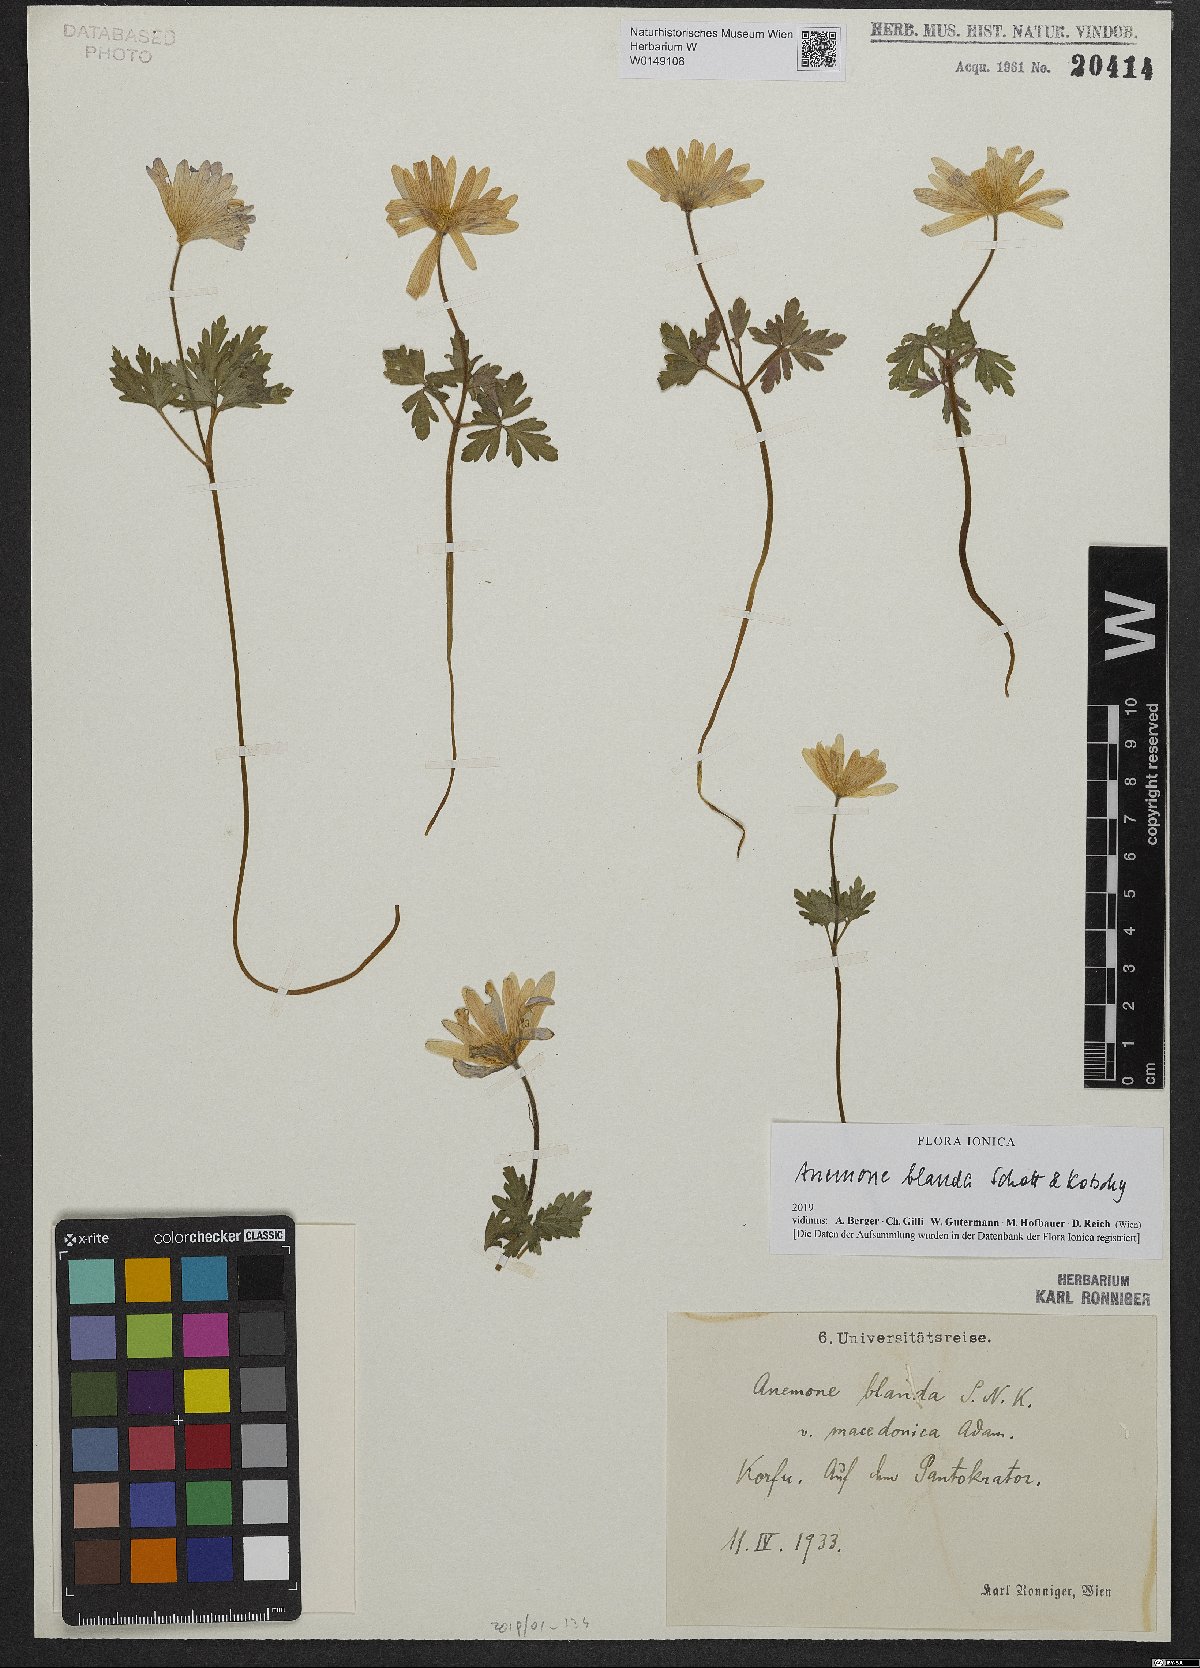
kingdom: Plantae
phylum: Tracheophyta
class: Magnoliopsida
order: Ranunculales
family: Ranunculaceae
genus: Anemone
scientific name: Anemone blanda
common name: Balkan anemone
